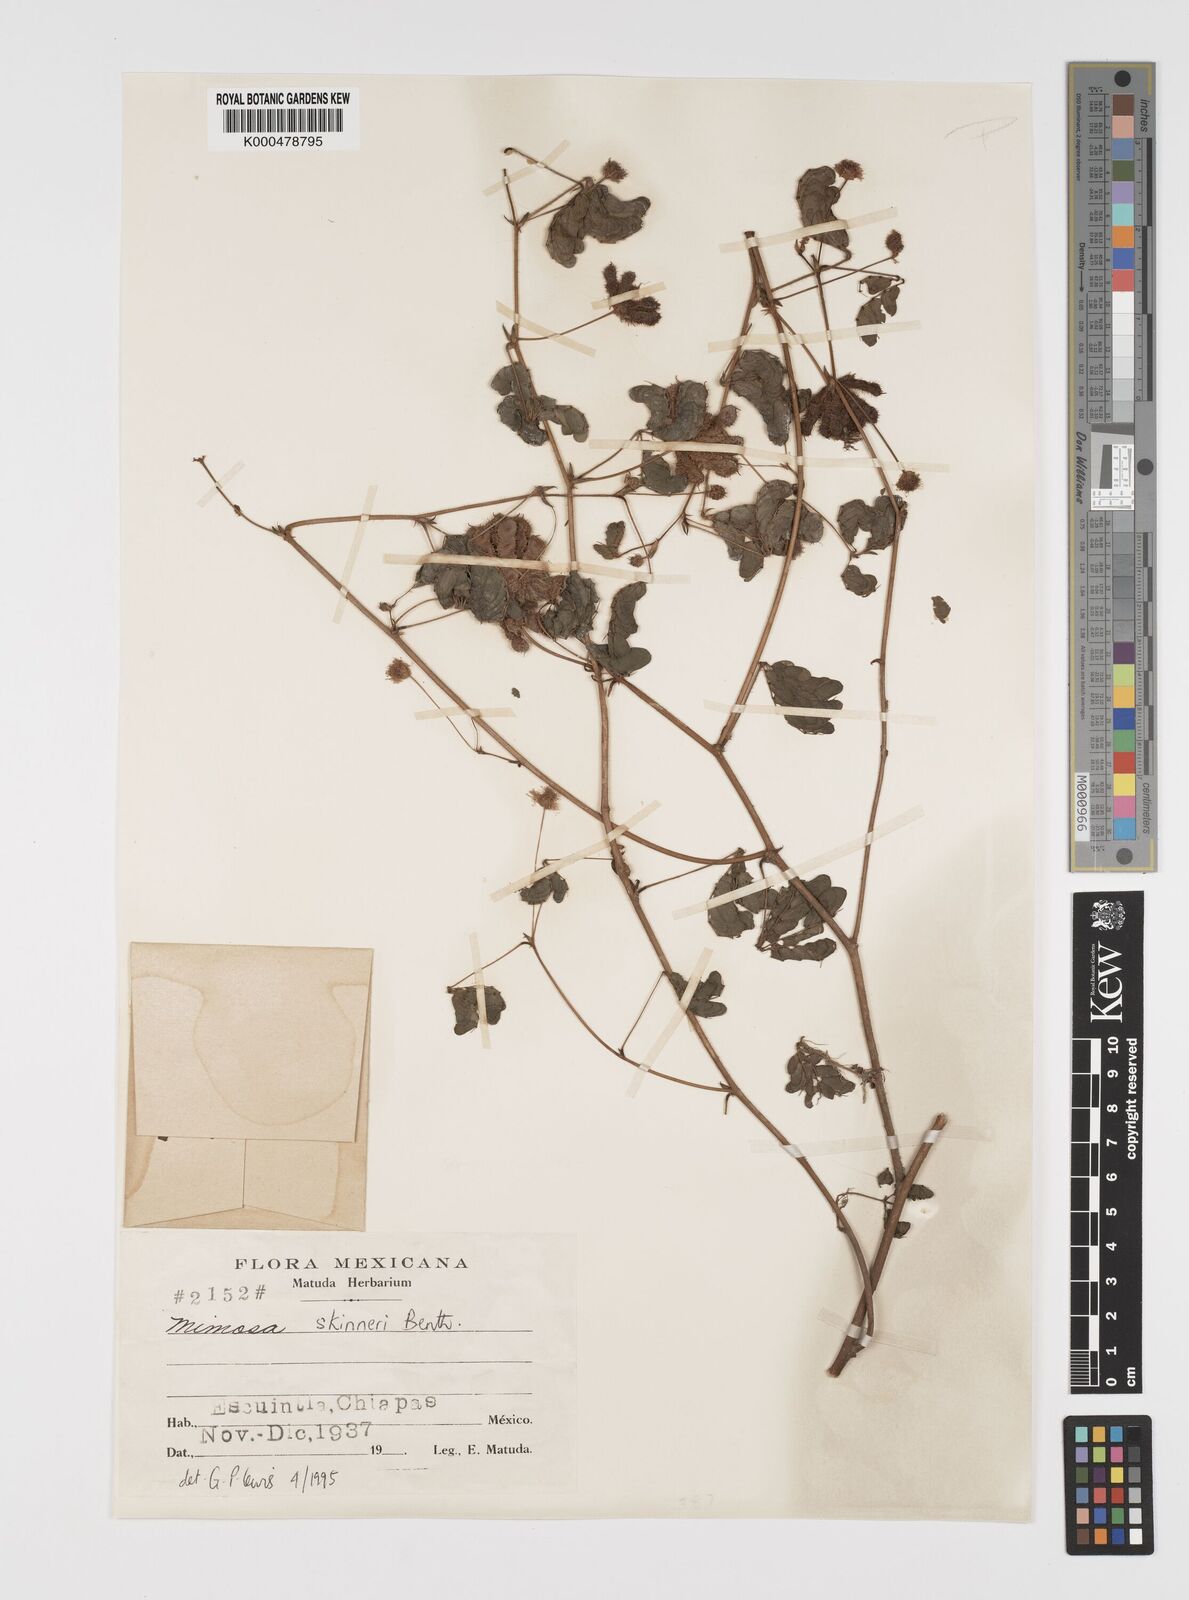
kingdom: Plantae
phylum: Tracheophyta
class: Magnoliopsida
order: Fabales
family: Fabaceae
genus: Mimosa
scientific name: Mimosa skinneri
